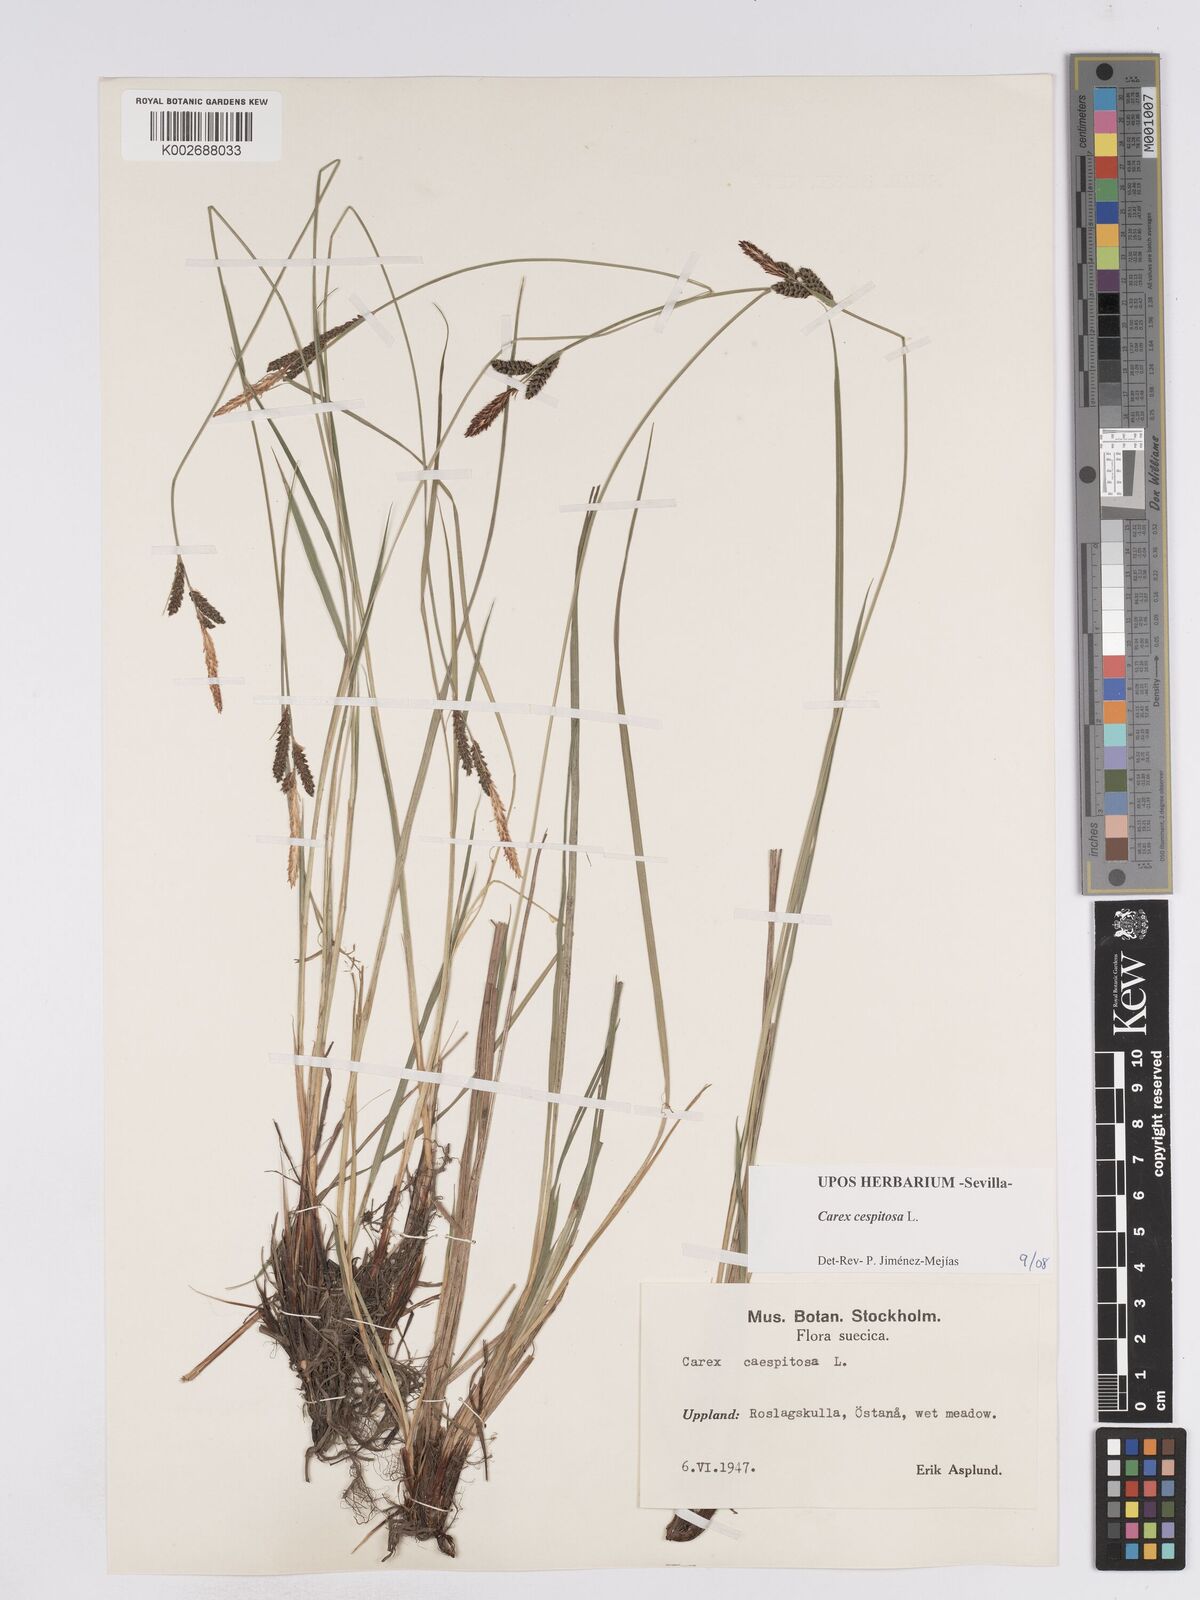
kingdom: Plantae
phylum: Tracheophyta
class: Liliopsida
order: Poales
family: Cyperaceae
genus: Carex
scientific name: Carex
